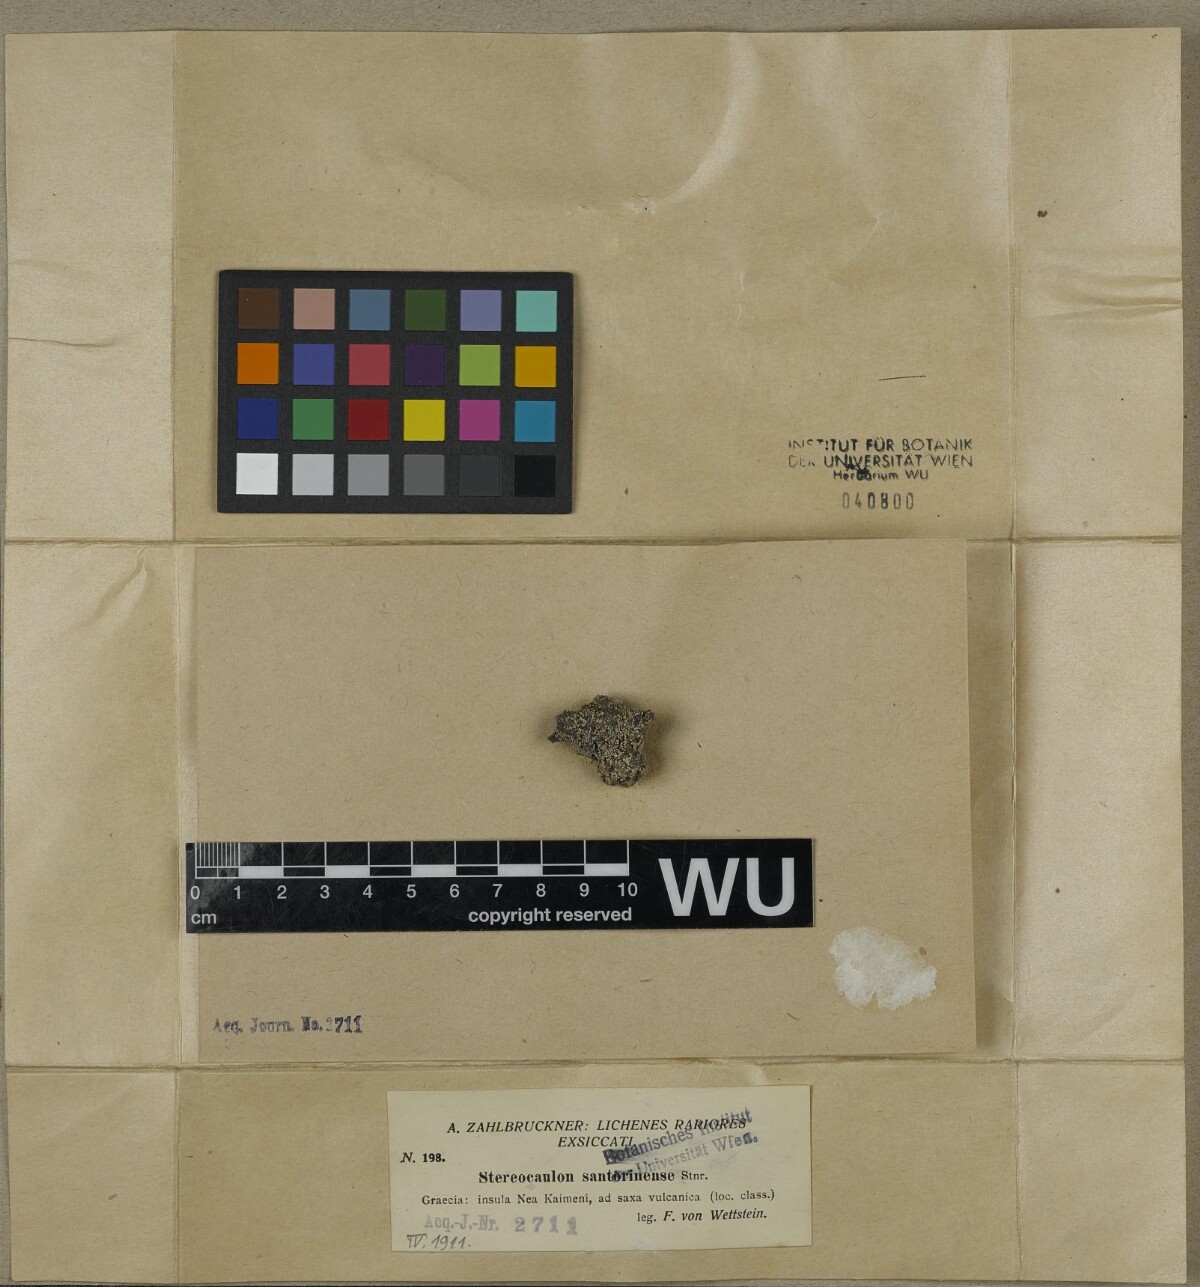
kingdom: Fungi
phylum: Ascomycota
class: Lecanoromycetes
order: Lecanorales
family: Stereocaulaceae
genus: Stereocaulon
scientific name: Stereocaulon santorinense
